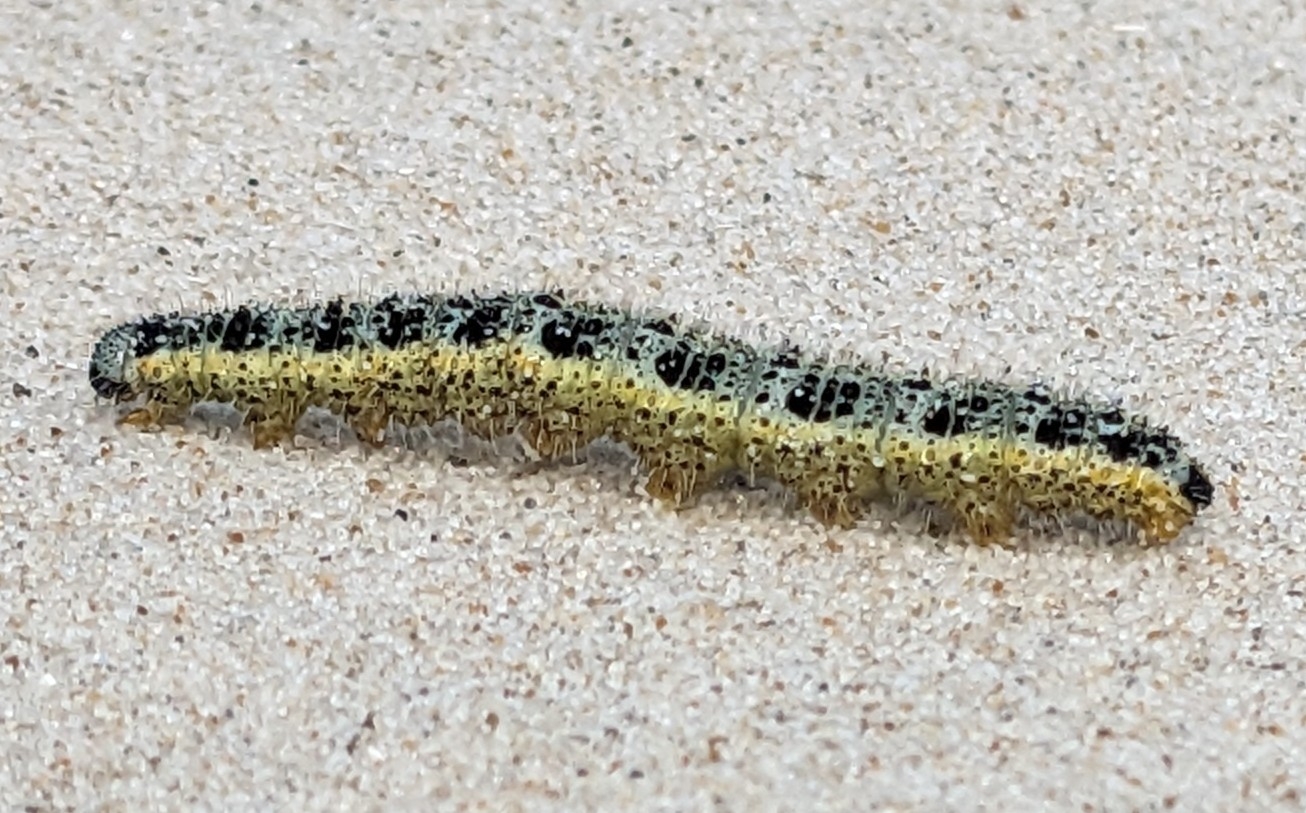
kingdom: Animalia
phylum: Arthropoda
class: Insecta
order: Lepidoptera
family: Pieridae
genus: Pieris
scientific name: Pieris brassicae
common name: Stor kålsommerfugl
